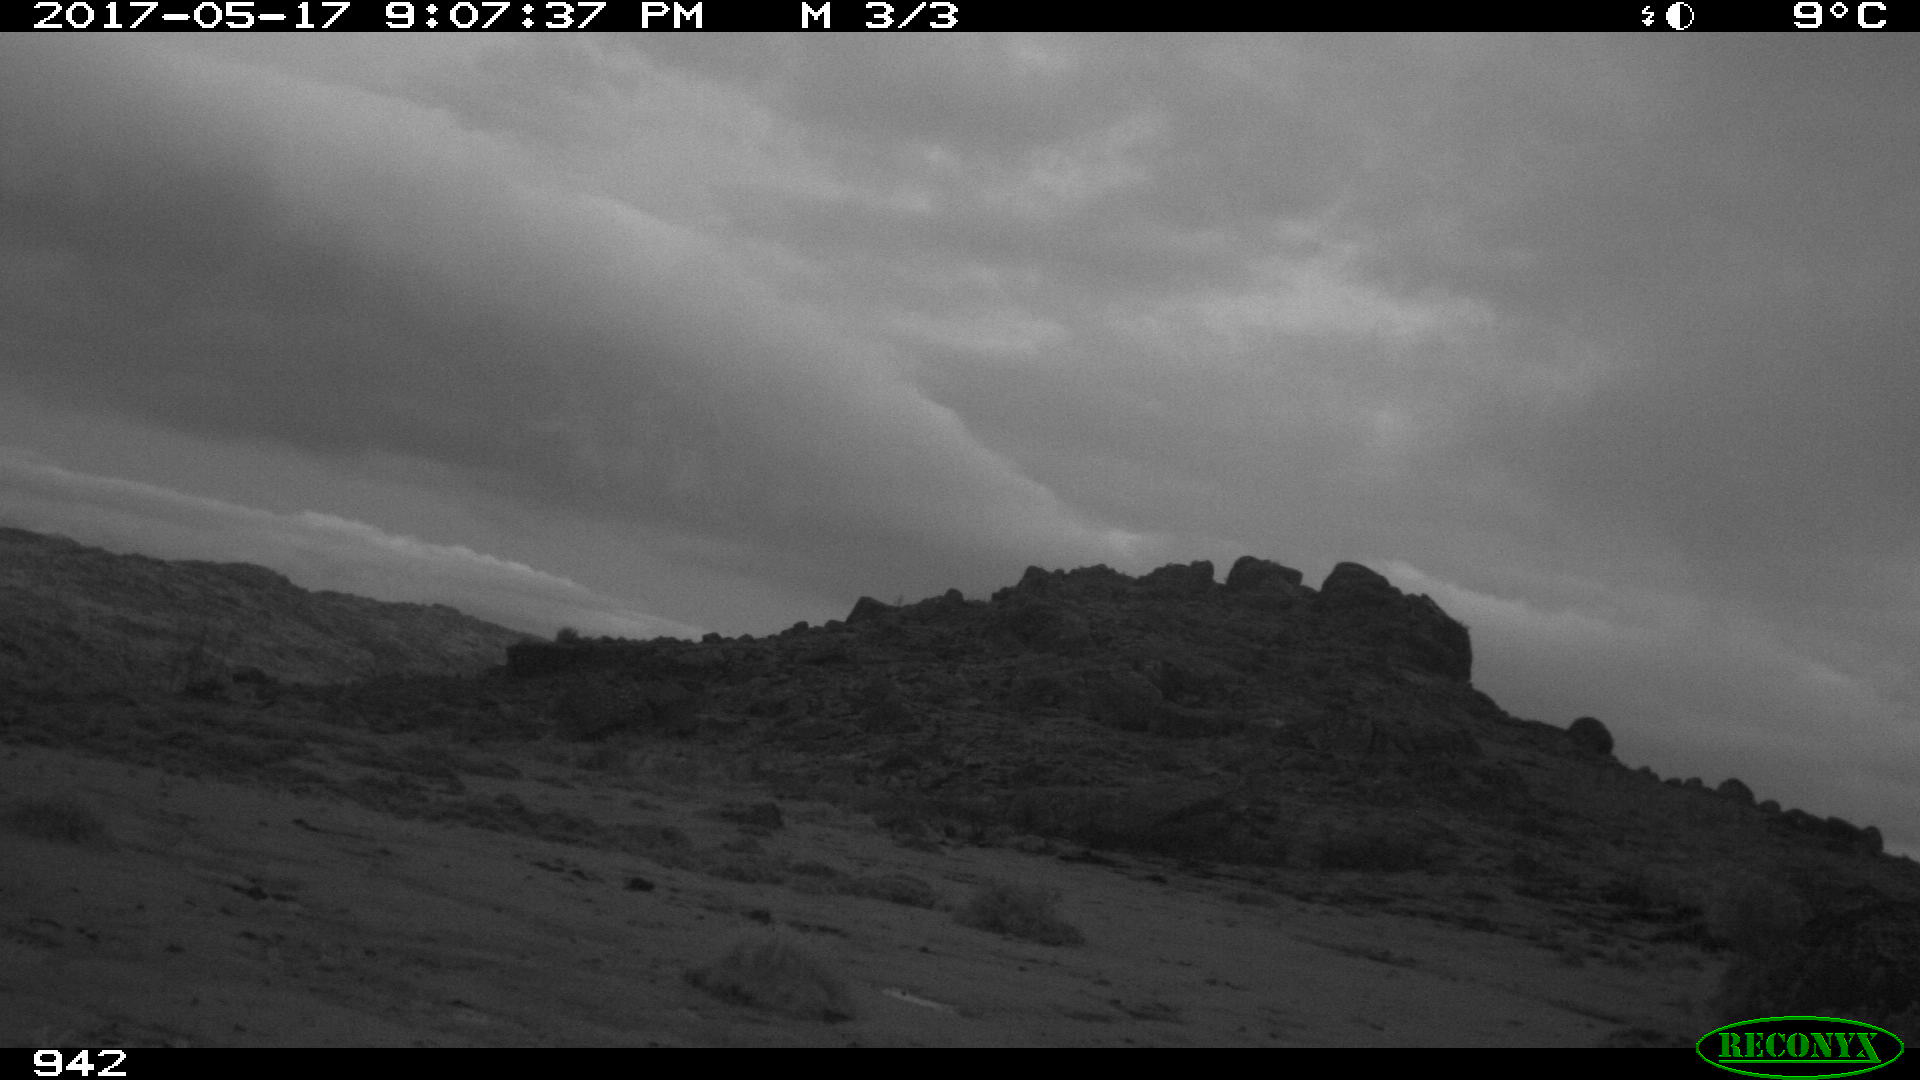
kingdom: Animalia
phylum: Chordata
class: Mammalia
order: Artiodactyla
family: Bovidae
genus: Bos
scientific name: Bos taurus
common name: Domesticated cattle
